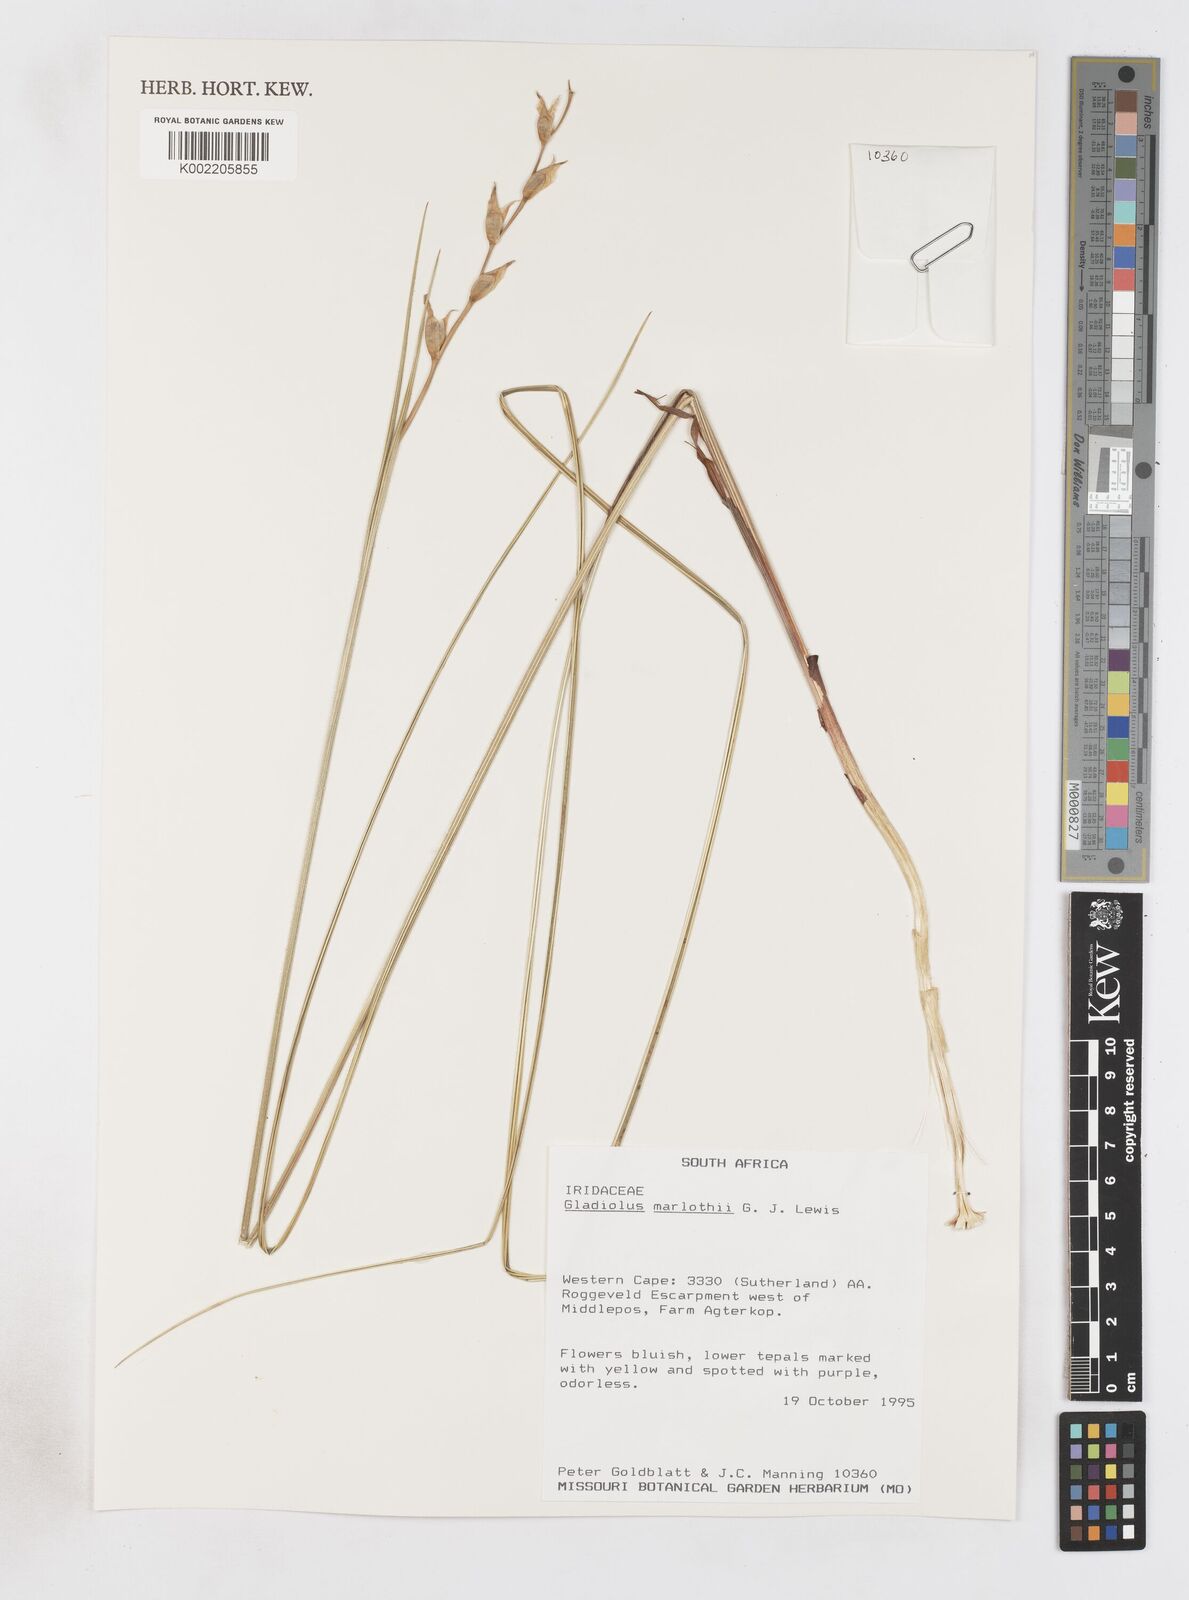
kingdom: Plantae
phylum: Tracheophyta
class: Liliopsida
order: Asparagales
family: Iridaceae
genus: Gladiolus
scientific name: Gladiolus marlothii
